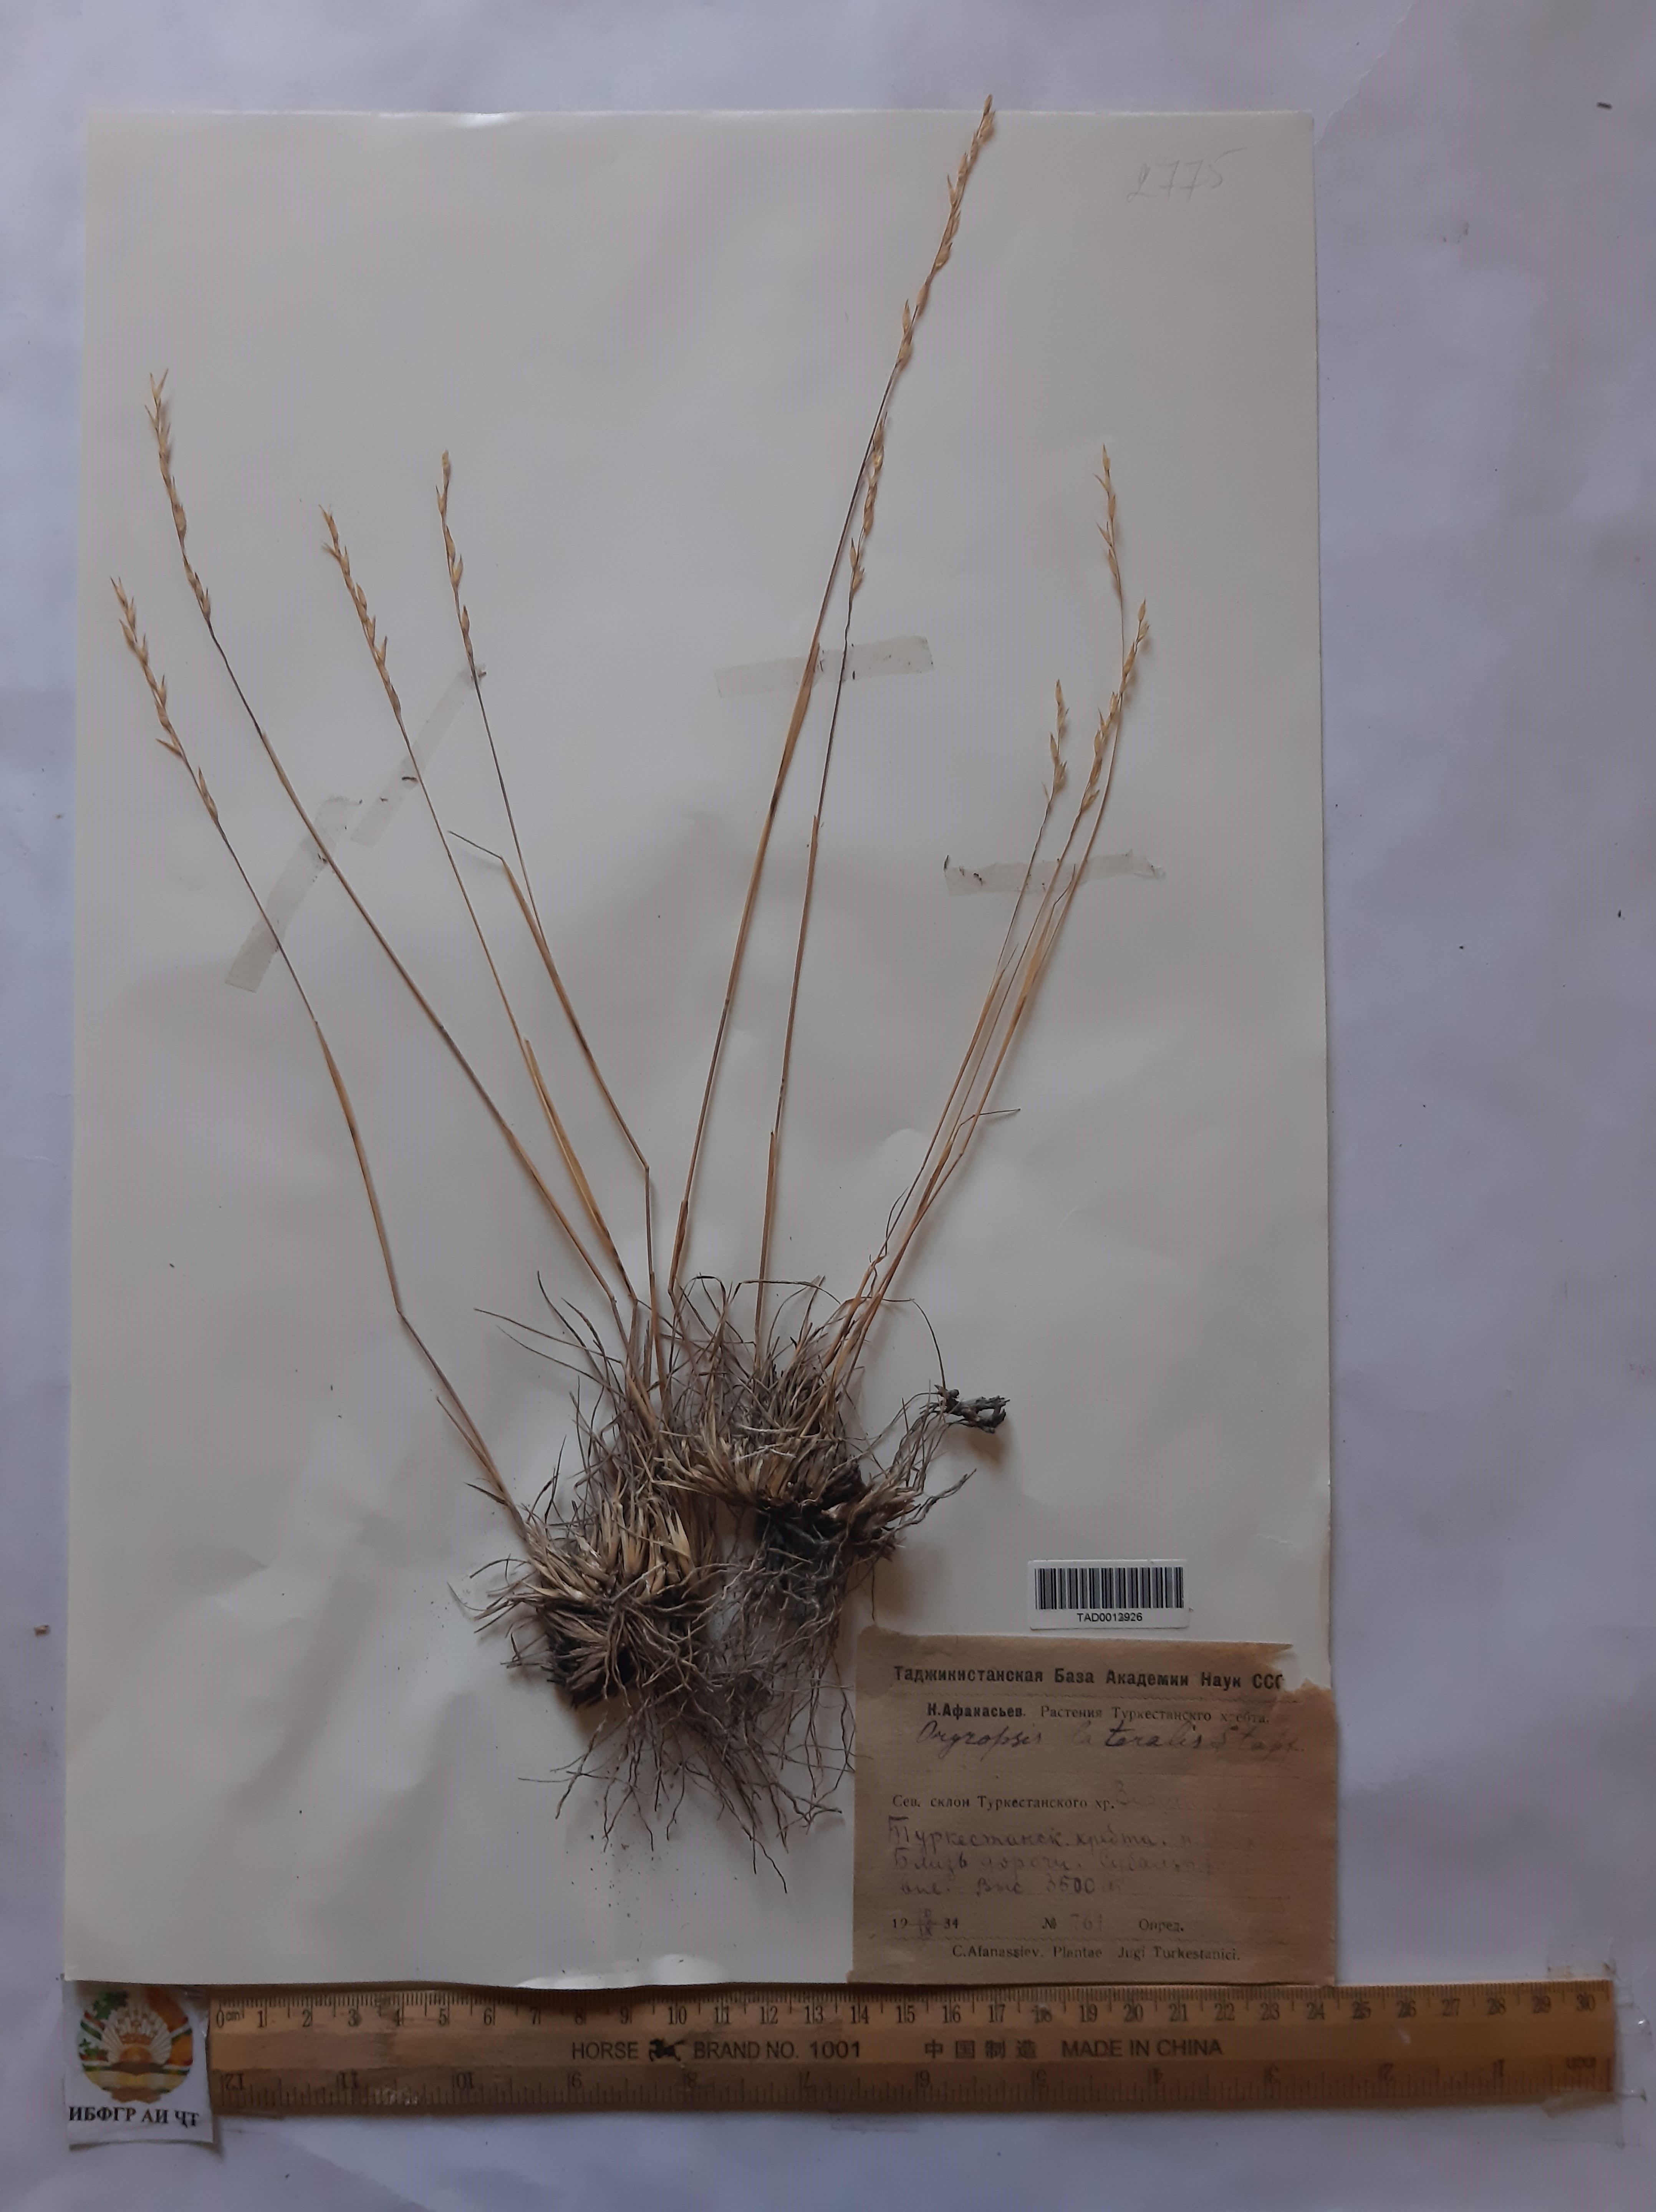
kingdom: Plantae
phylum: Tracheophyta
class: Liliopsida
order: Poales
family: Poaceae
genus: Piptatherum
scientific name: Piptatherum laterale
